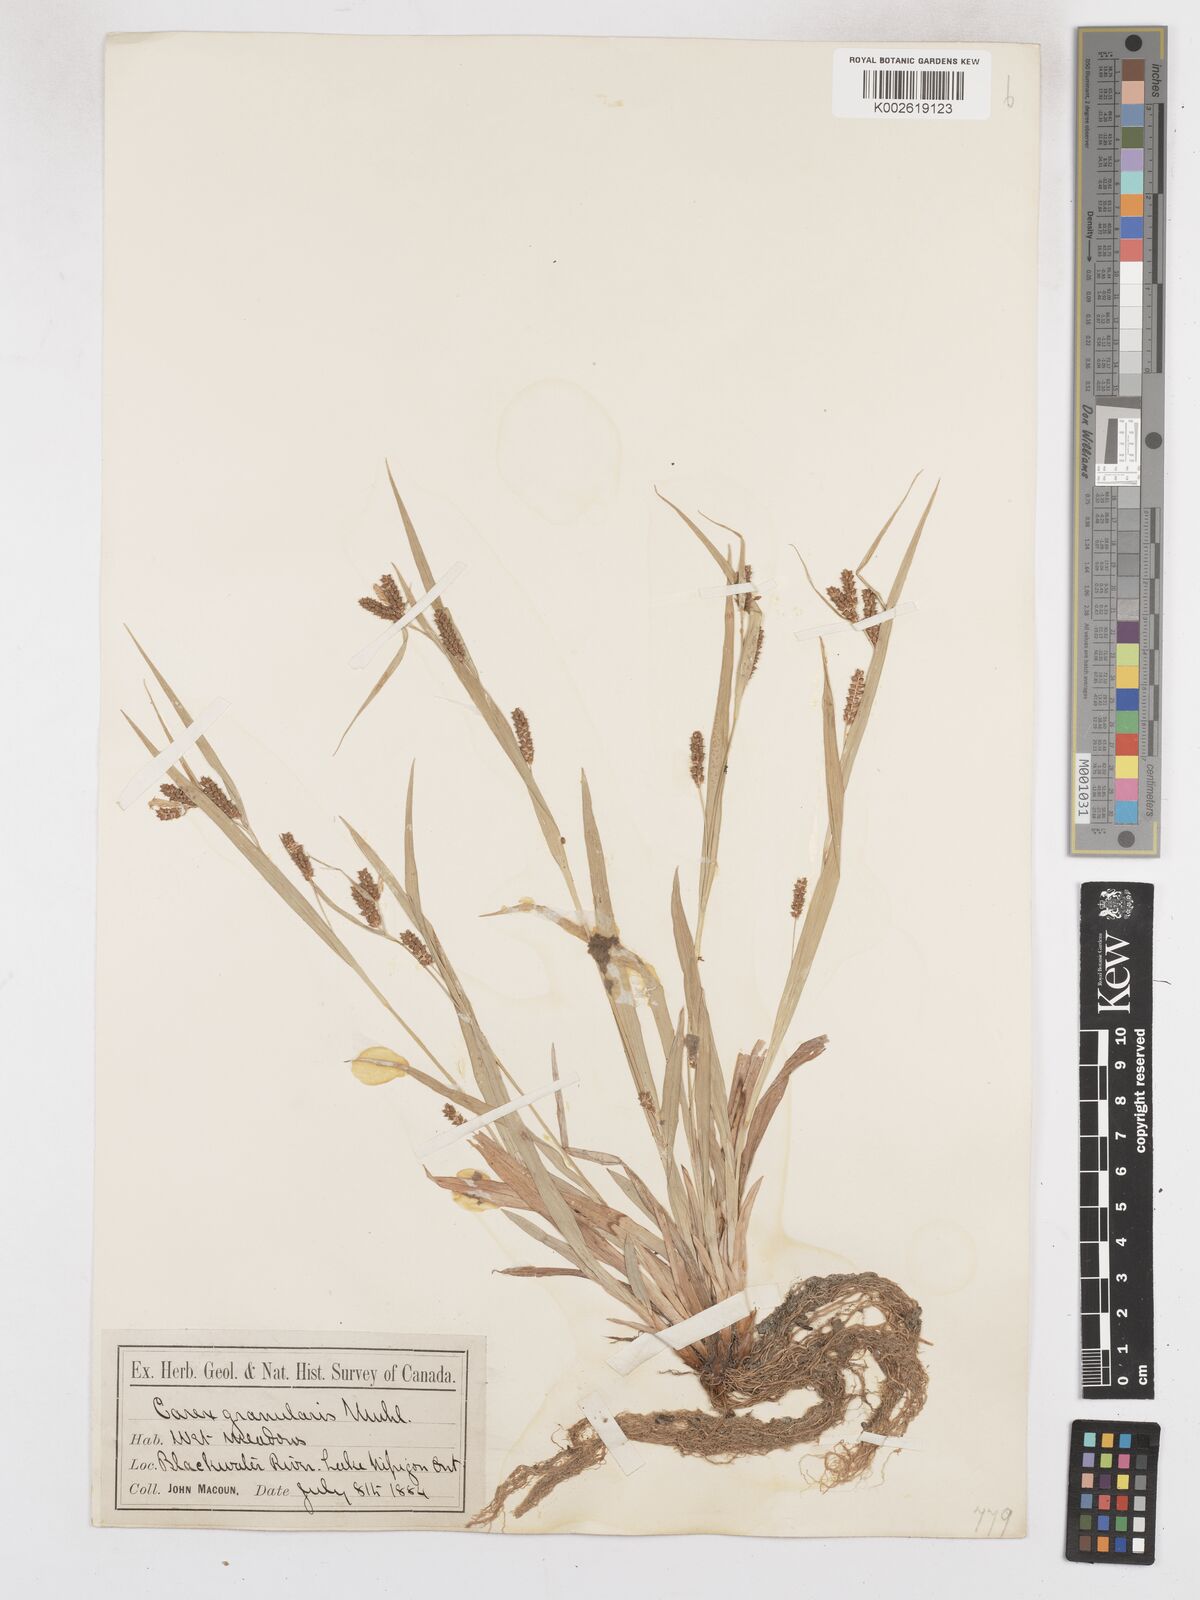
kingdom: Plantae
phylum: Tracheophyta
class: Liliopsida
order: Poales
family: Cyperaceae
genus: Carex
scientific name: Carex granularis
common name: Granular sedge
